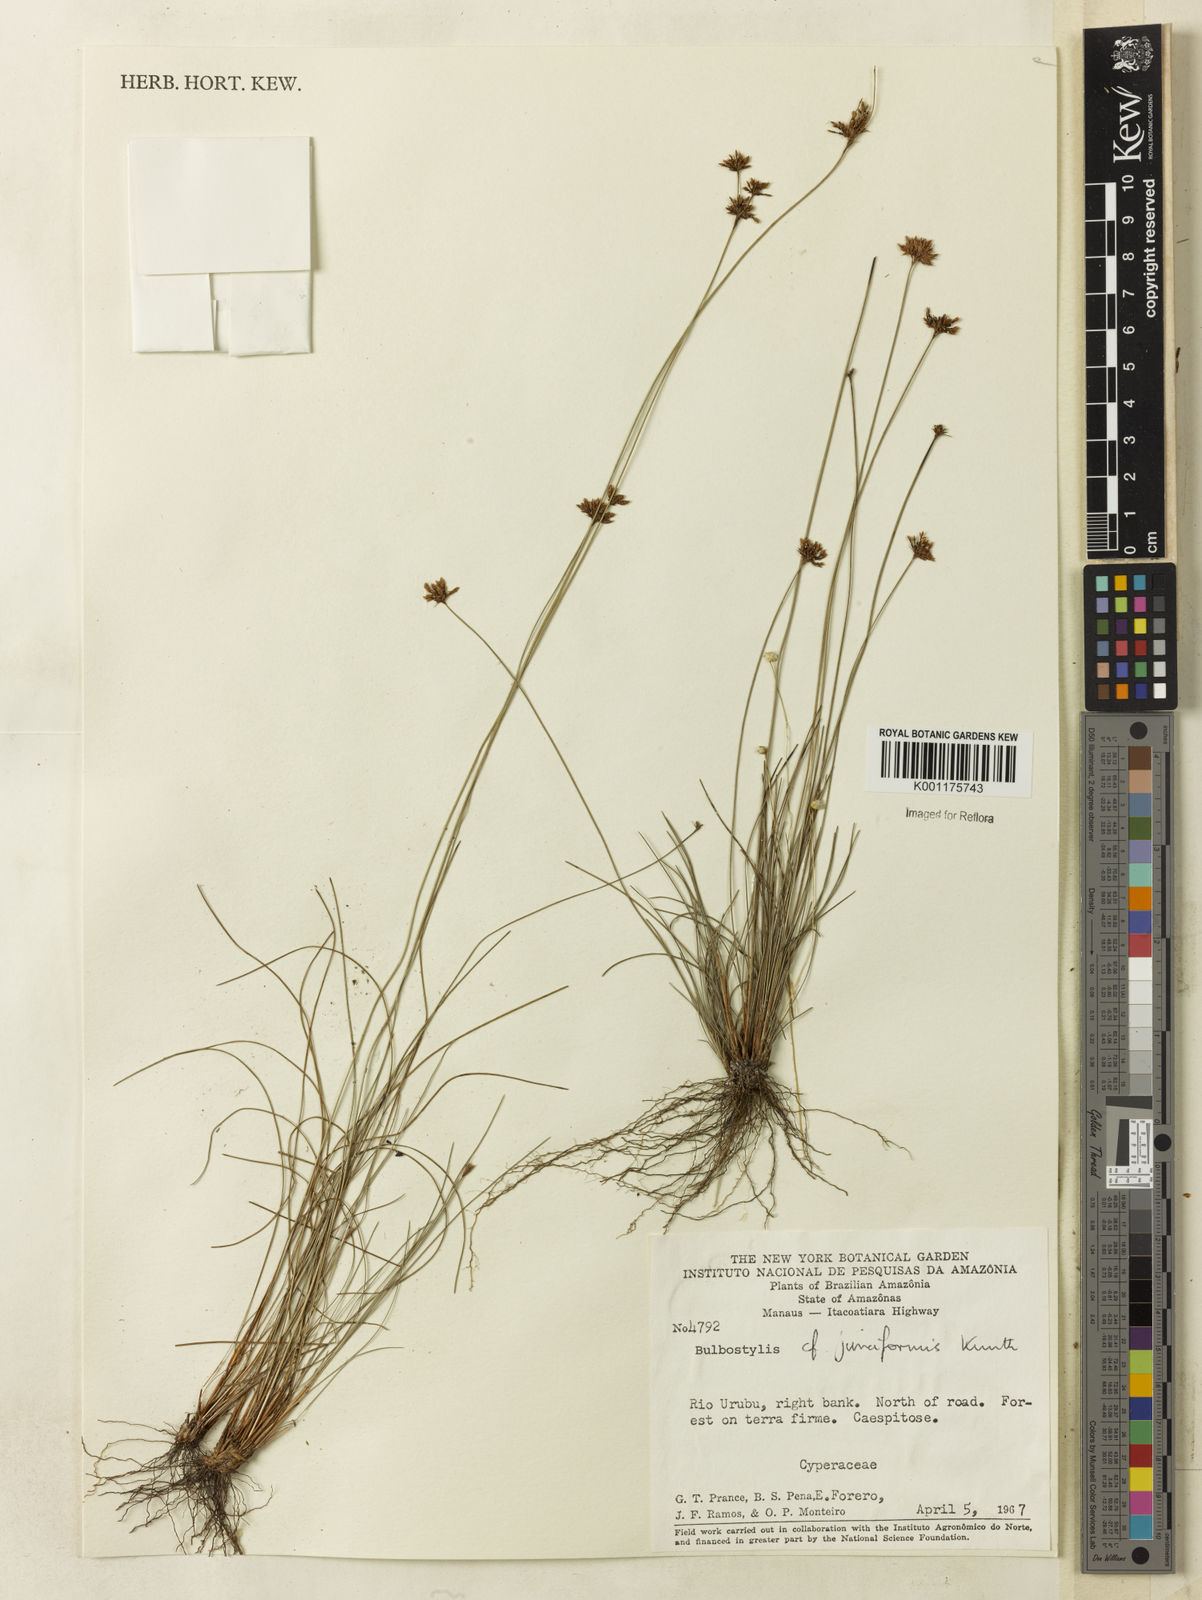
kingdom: Plantae
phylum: Tracheophyta
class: Liliopsida
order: Poales
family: Cyperaceae
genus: Bulbostylis
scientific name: Bulbostylis junciformis
